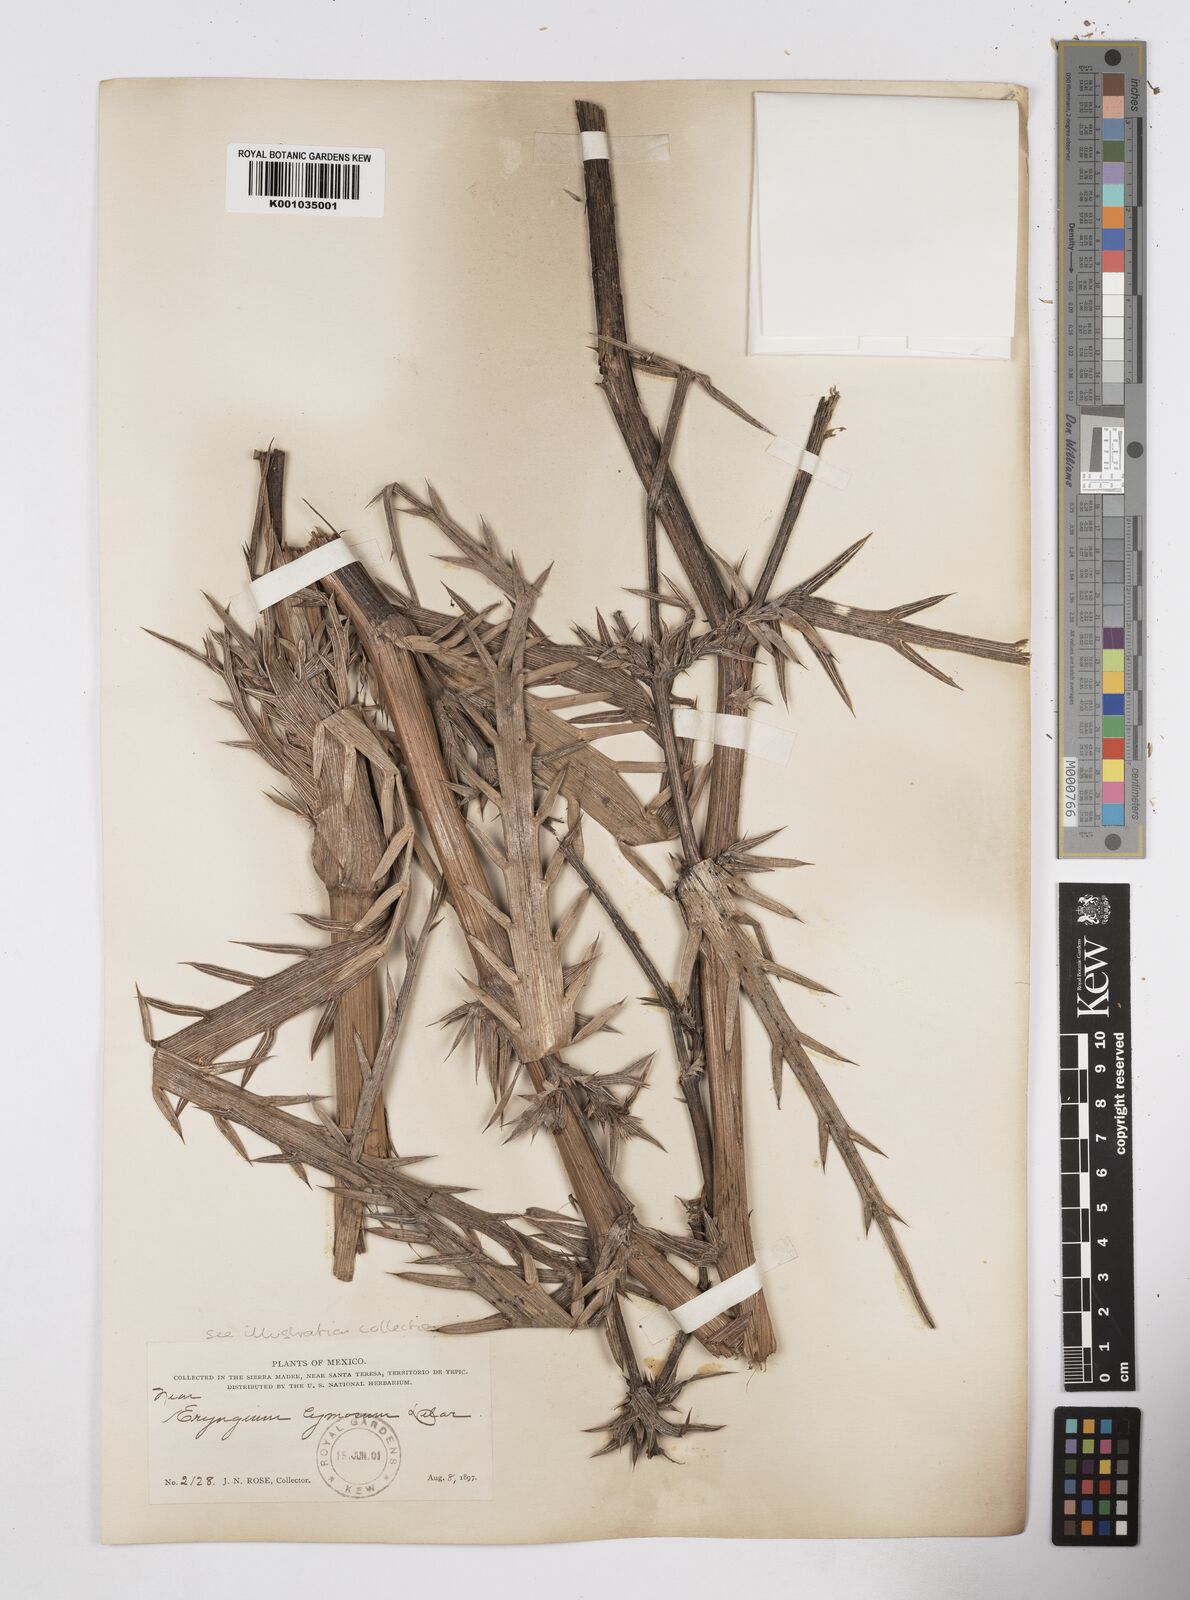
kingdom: Plantae
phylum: Tracheophyta
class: Magnoliopsida
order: Apiales
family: Apiaceae
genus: Eryngium
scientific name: Eryngium cymosum
